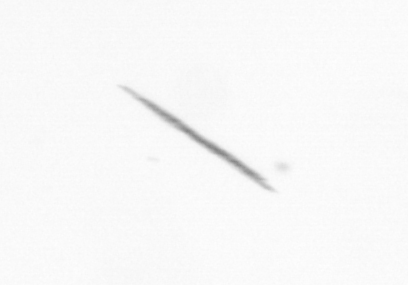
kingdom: Bacteria
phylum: Cyanobacteria
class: Cyanobacteriia
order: Cyanobacteriales
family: Microcoleaceae
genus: Trichodesmium
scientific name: Trichodesmium
